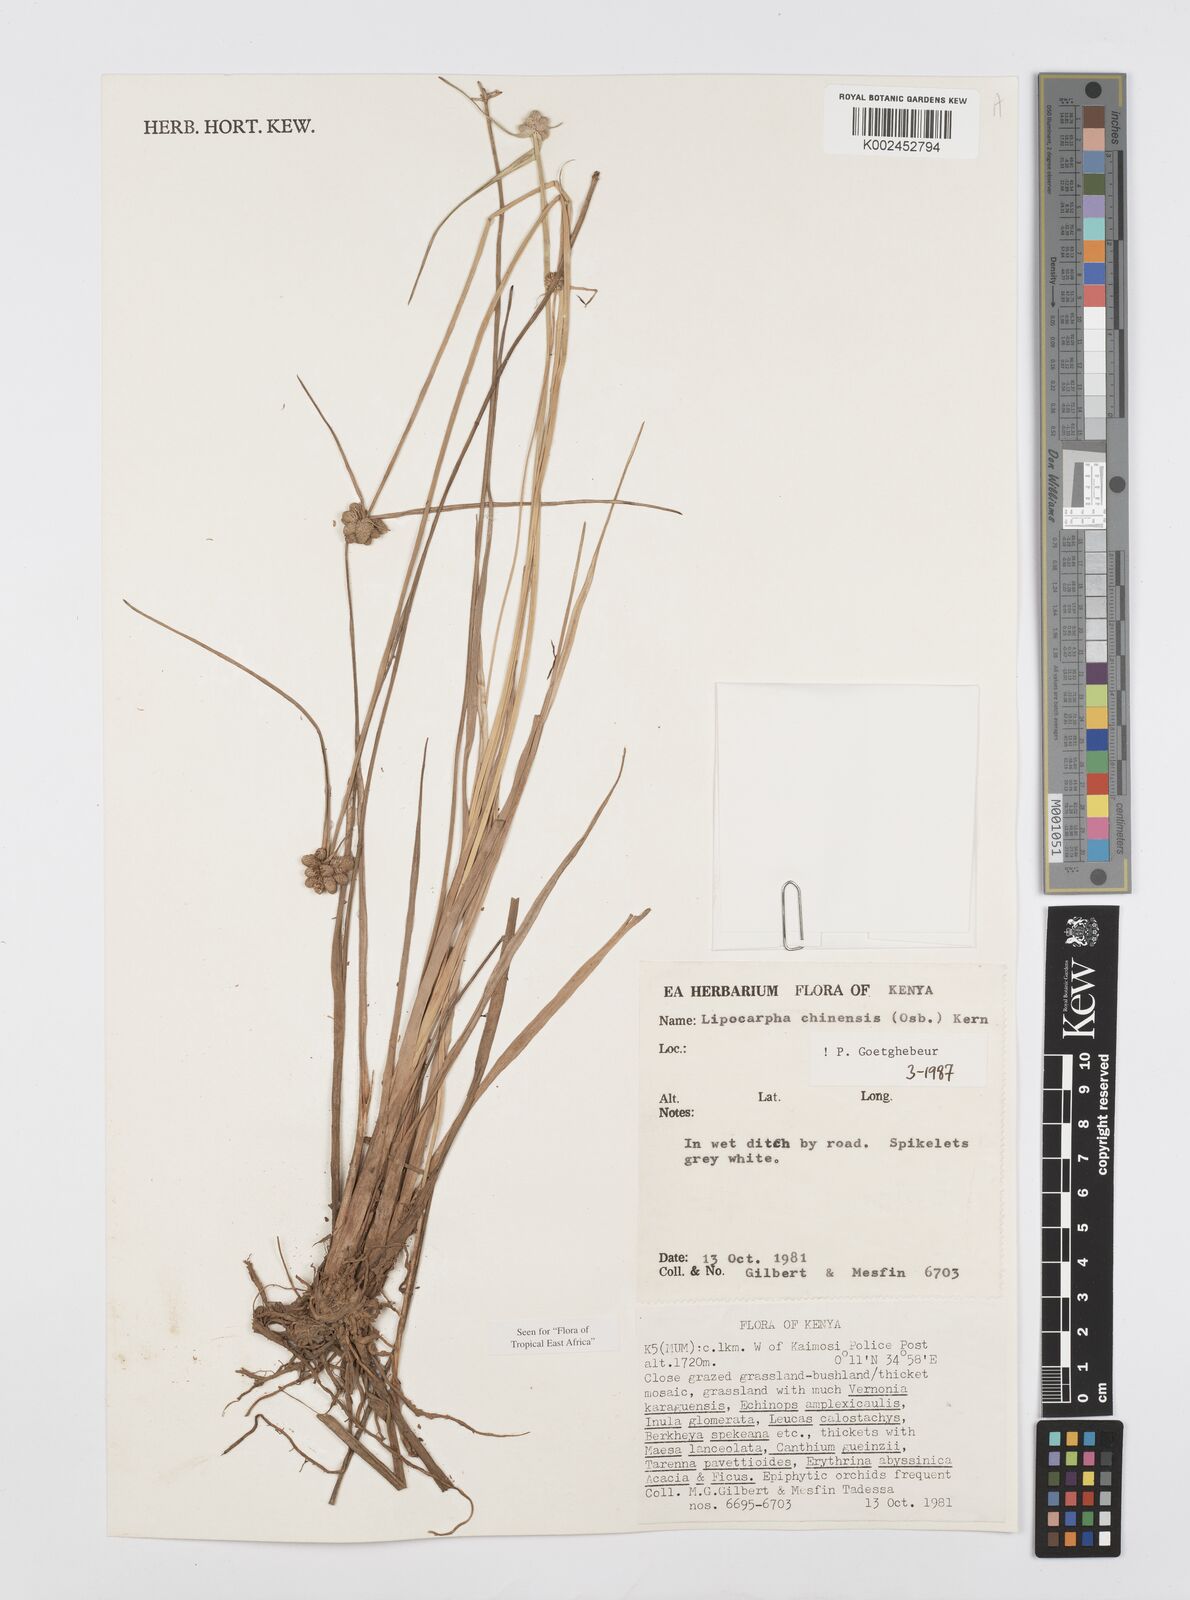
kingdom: Plantae
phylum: Tracheophyta
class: Liliopsida
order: Poales
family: Cyperaceae
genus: Cyperus
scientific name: Cyperus albescens
